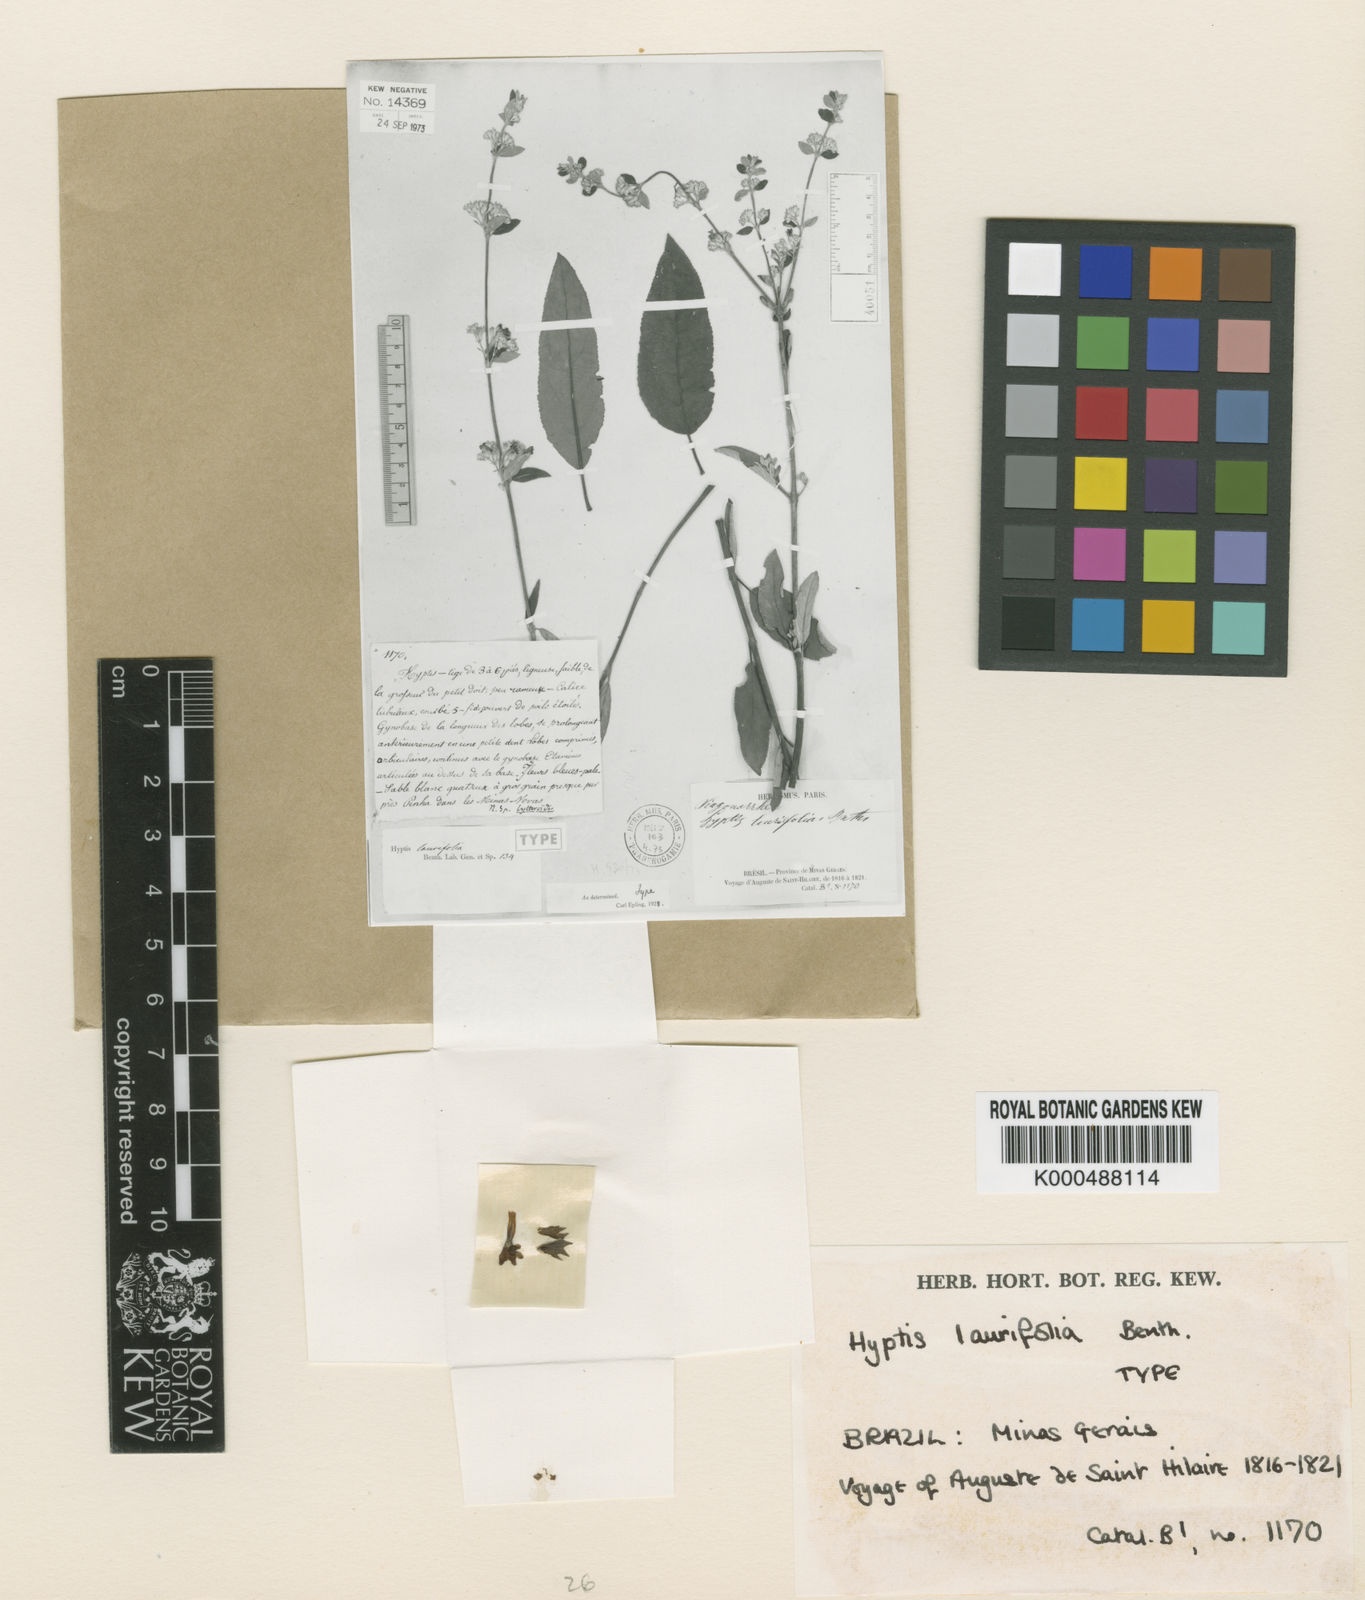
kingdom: Plantae
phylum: Tracheophyta
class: Magnoliopsida
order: Lamiales
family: Lamiaceae
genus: Hyptidendron
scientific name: Hyptidendron leucophyllum
